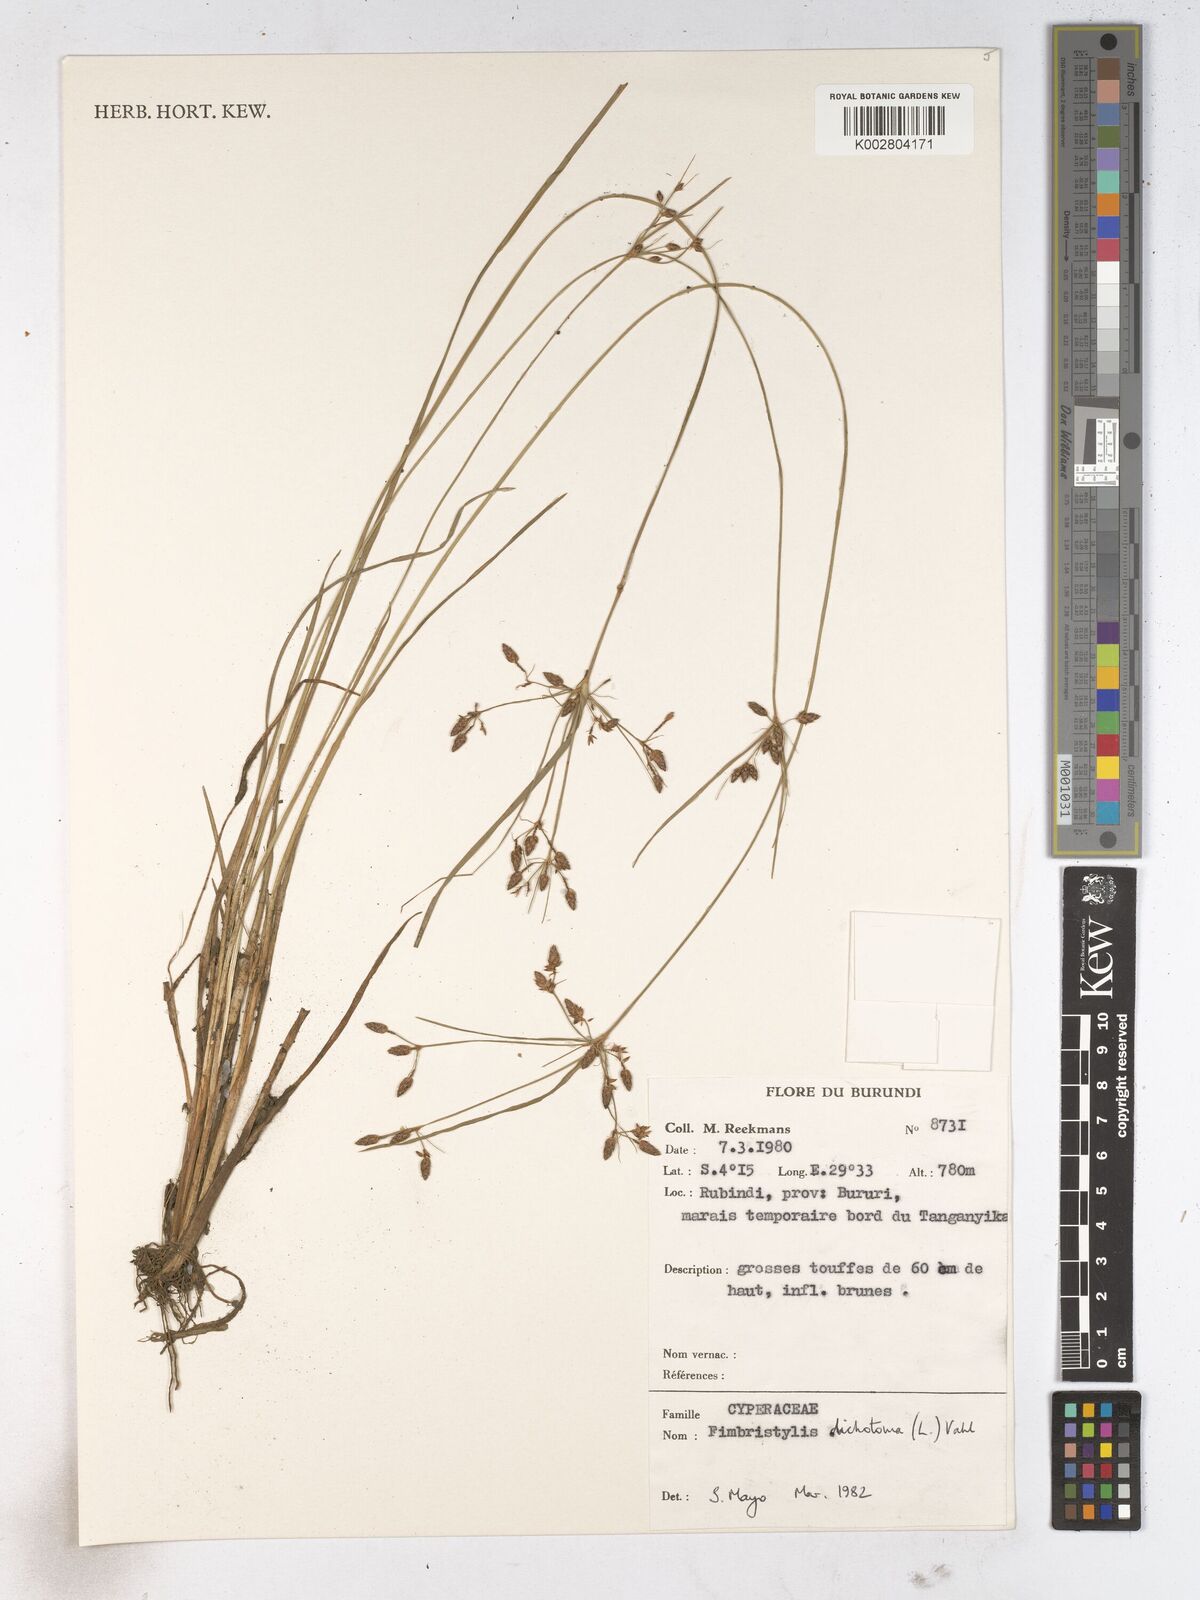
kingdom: Plantae
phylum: Tracheophyta
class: Liliopsida
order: Poales
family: Cyperaceae
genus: Fimbristylis
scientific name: Fimbristylis dichotoma
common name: Forked fimbry
